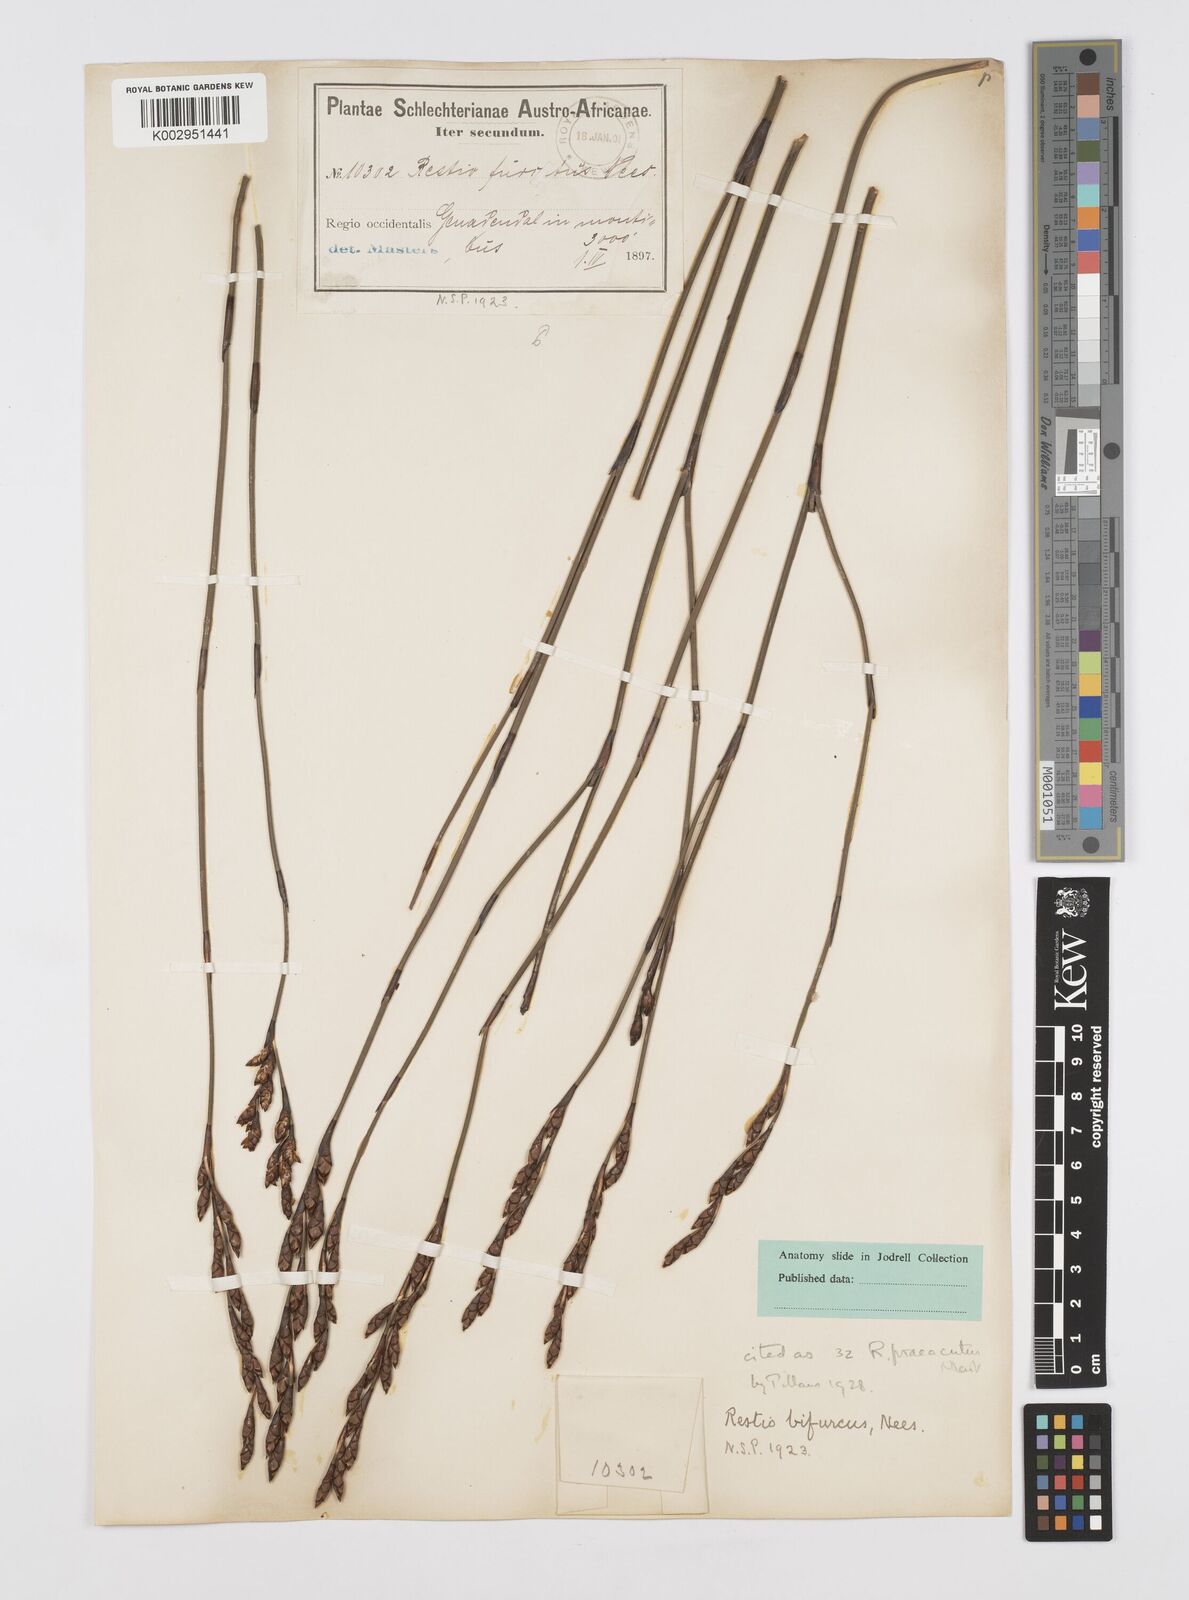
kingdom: Plantae
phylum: Tracheophyta
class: Liliopsida
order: Poales
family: Restionaceae
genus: Restio
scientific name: Restio
